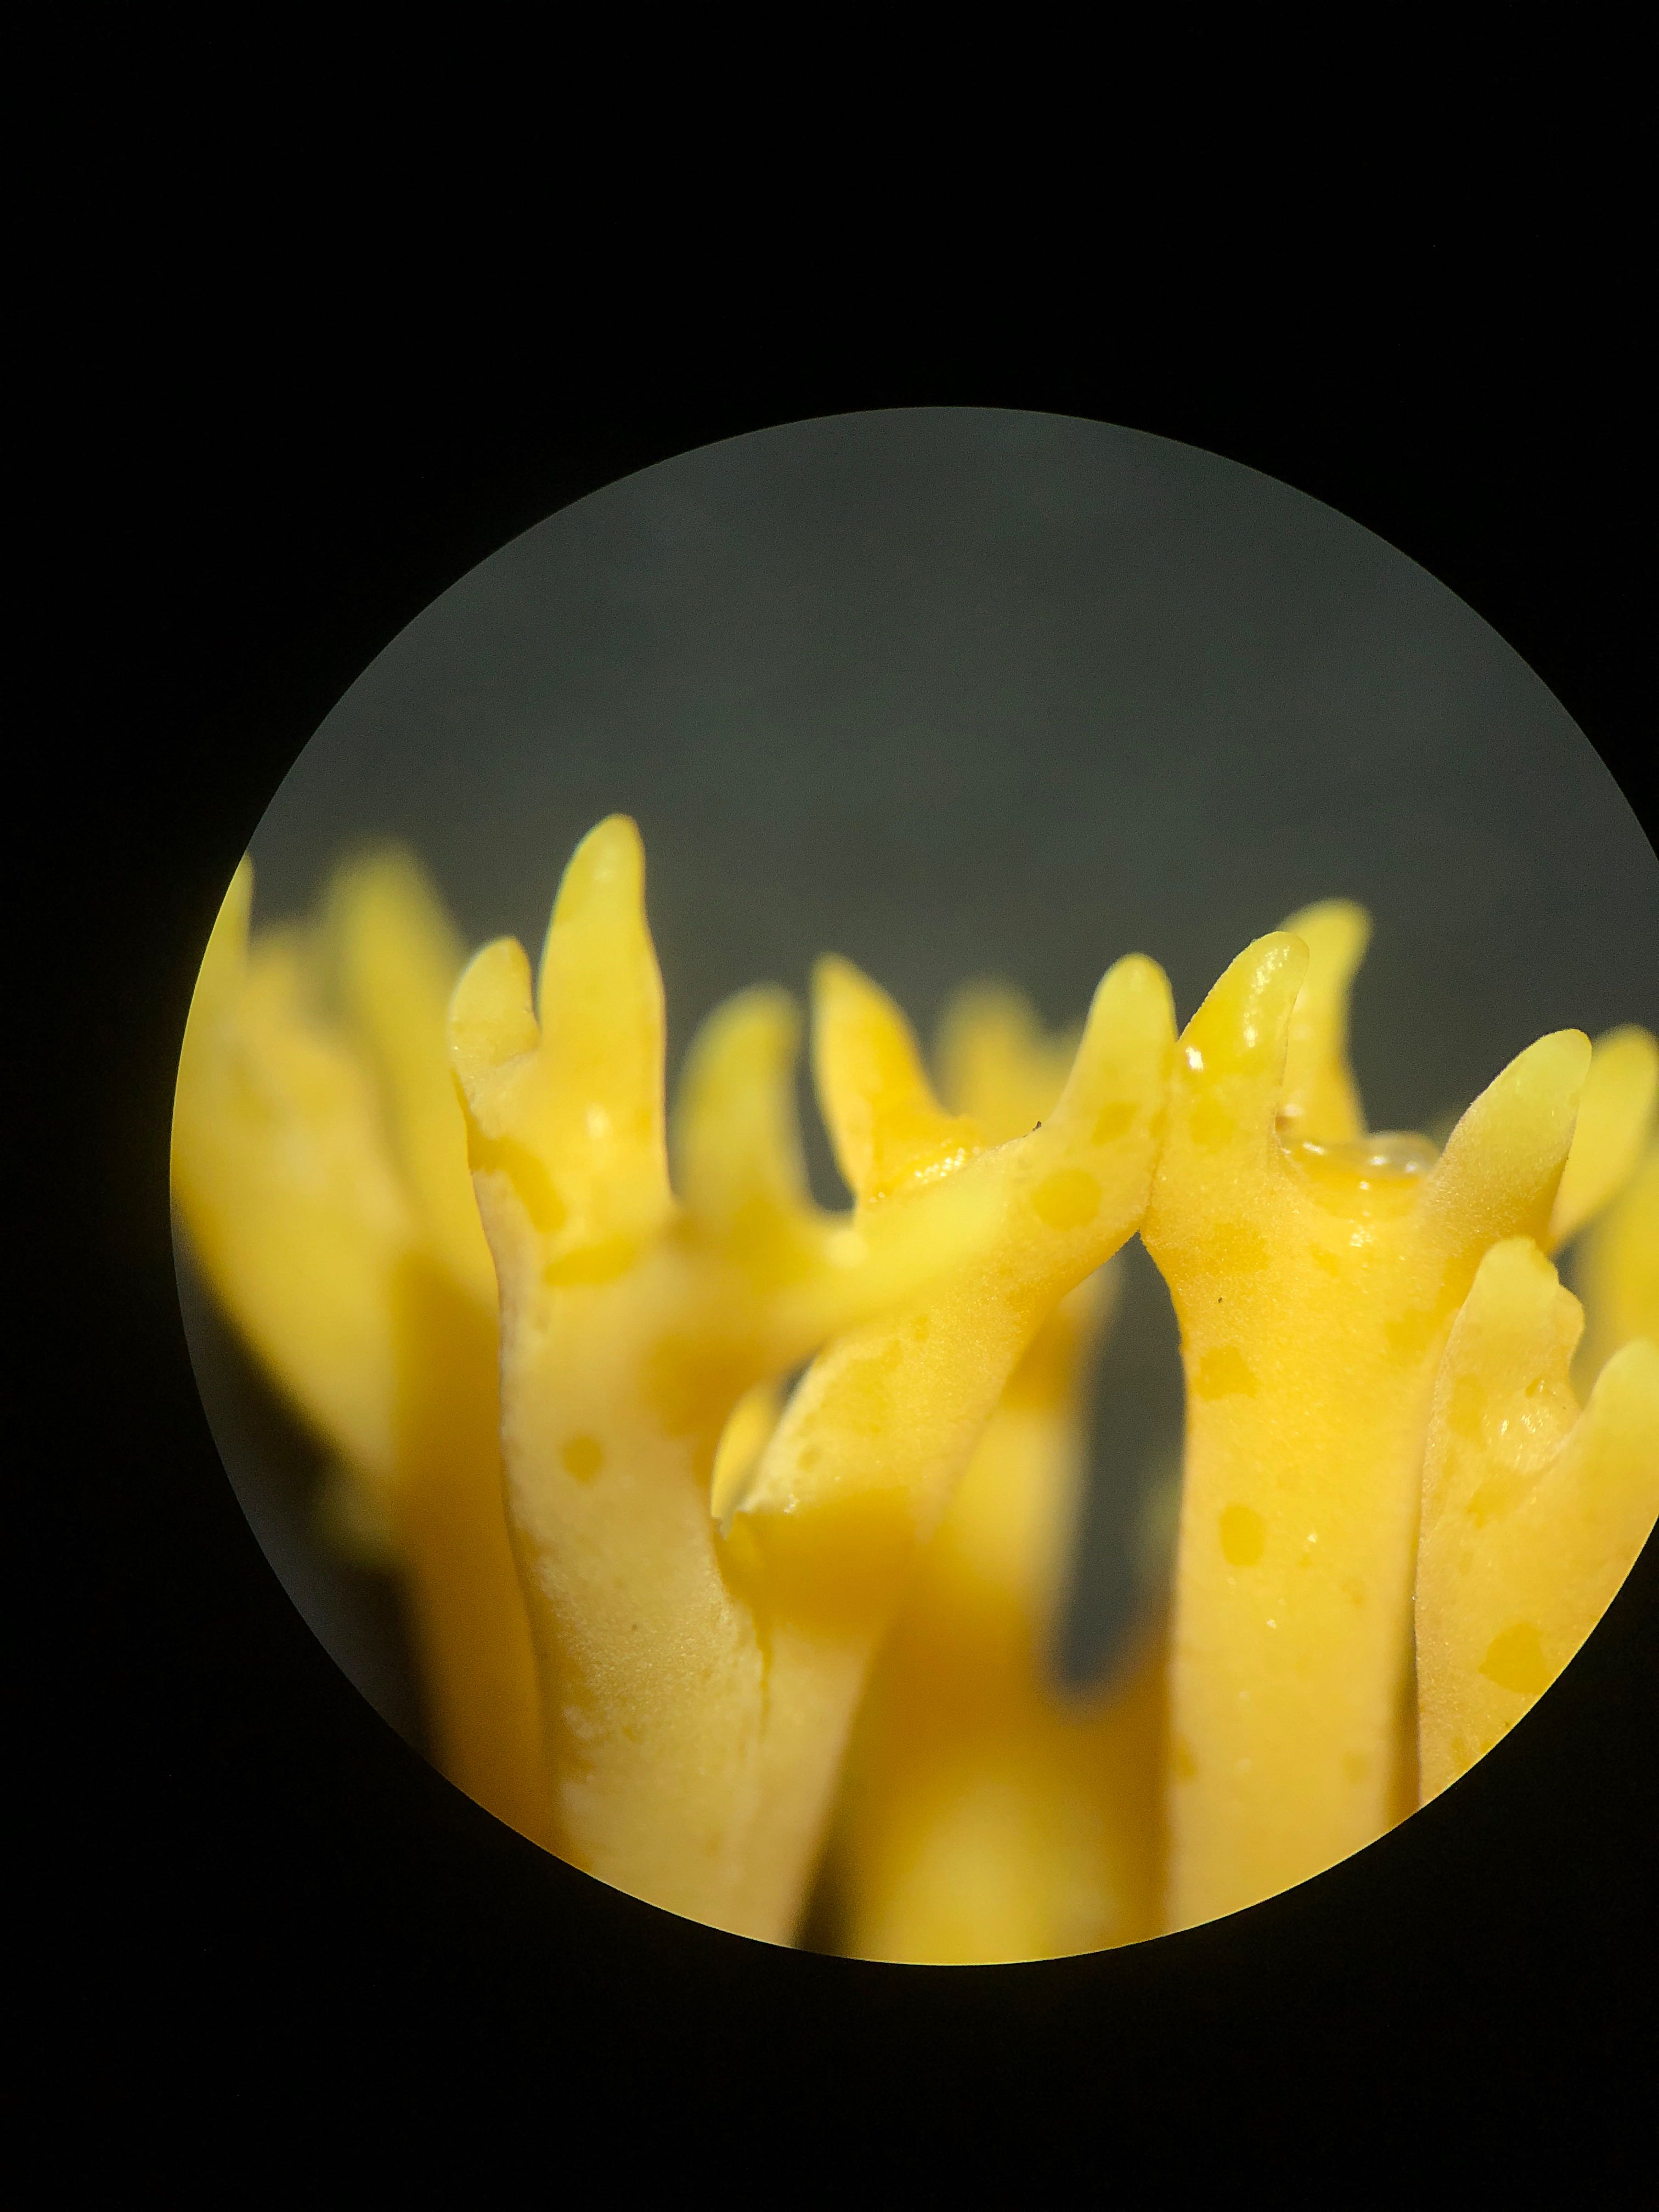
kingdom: Fungi
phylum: Basidiomycota
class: Agaricomycetes
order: Agaricales
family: Clavariaceae
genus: Clavulinopsis
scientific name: Clavulinopsis corniculata
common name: eng-køllesvamp
